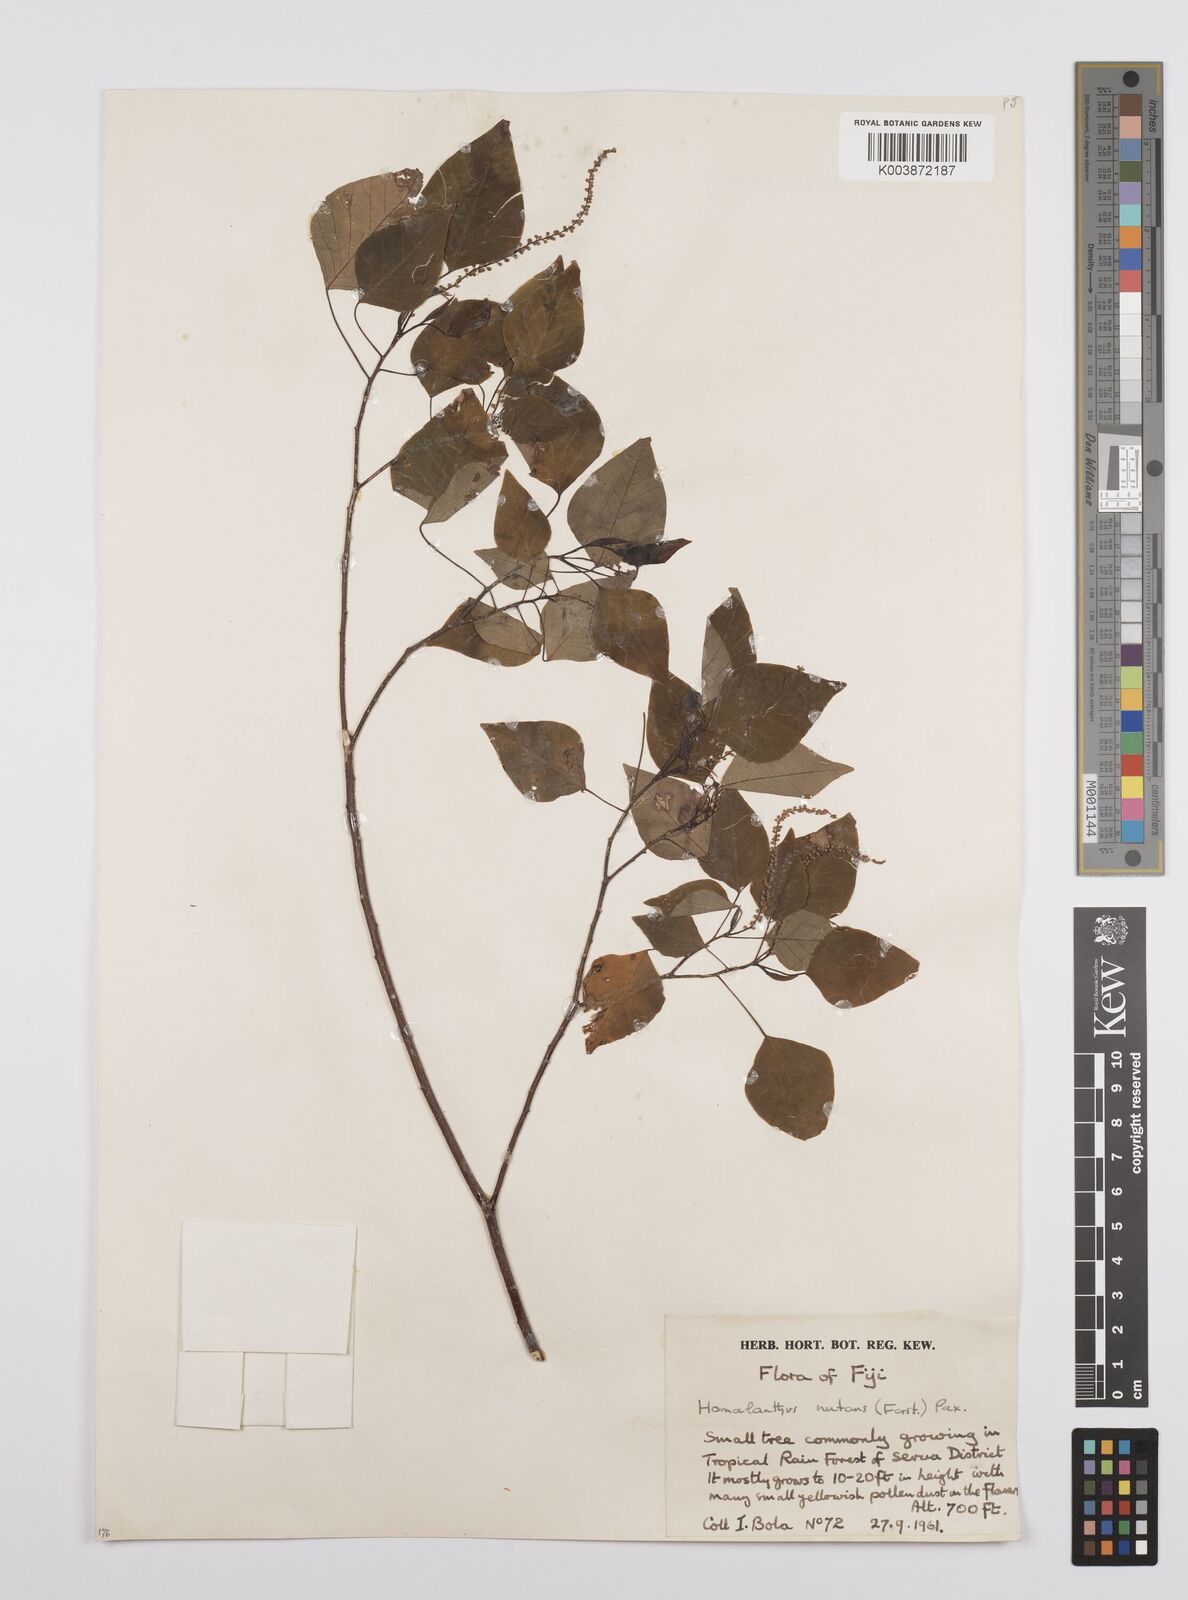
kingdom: Plantae
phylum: Tracheophyta
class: Magnoliopsida
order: Malpighiales
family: Euphorbiaceae
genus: Homalanthus
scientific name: Homalanthus nutans
